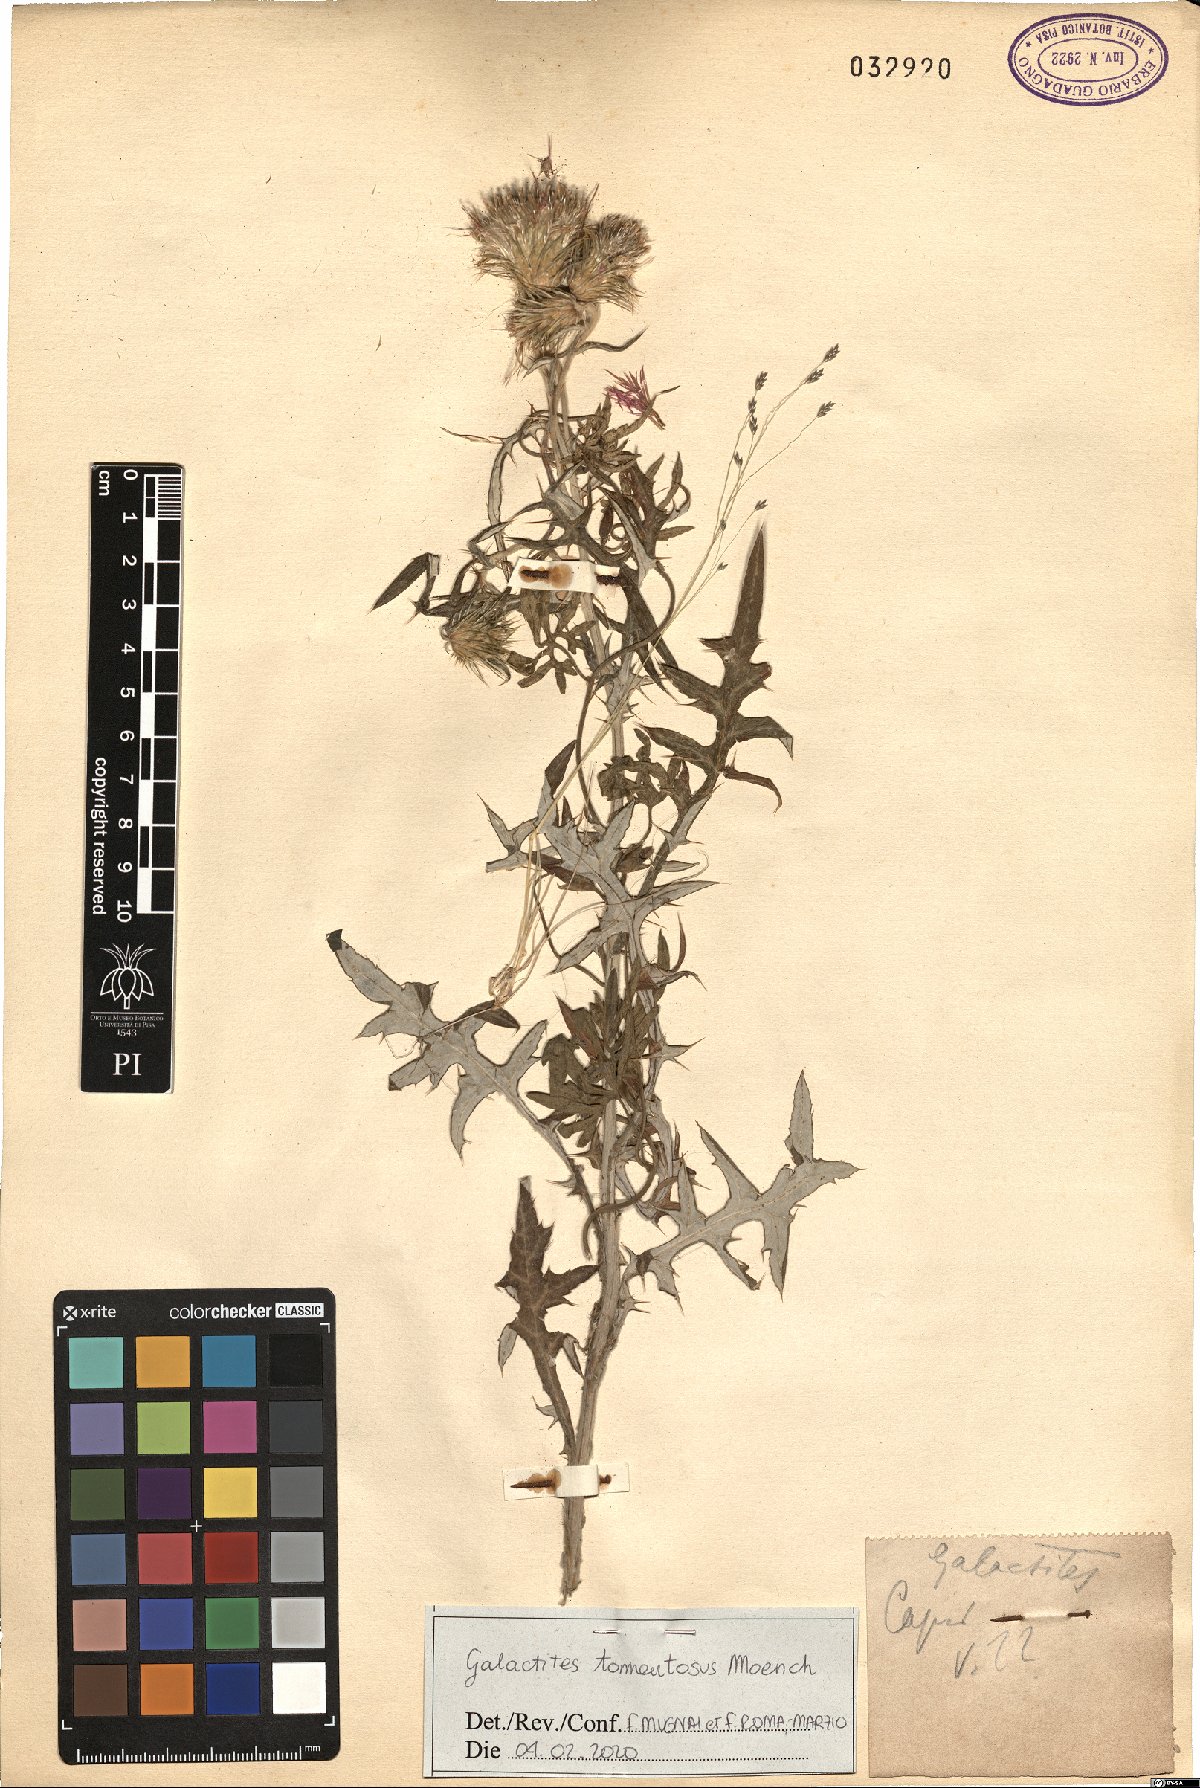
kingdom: Plantae
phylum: Tracheophyta
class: Magnoliopsida
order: Asterales
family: Asteraceae
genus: Galactites
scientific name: Galactites tomentosa
